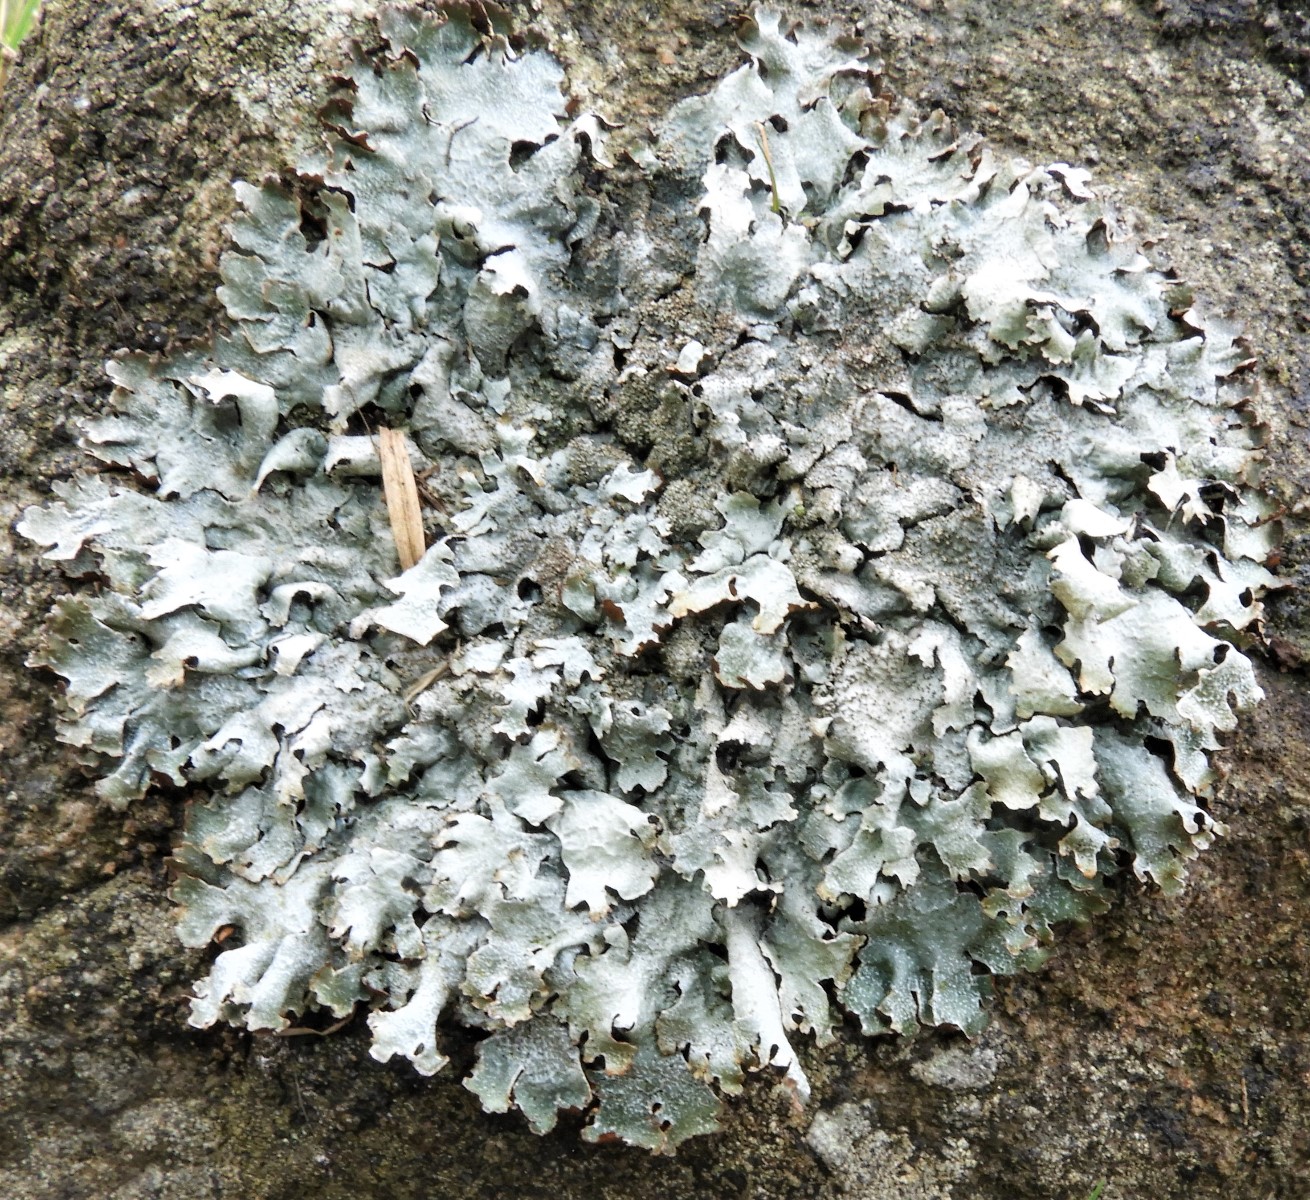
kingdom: Fungi
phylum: Ascomycota
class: Lecanoromycetes
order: Lecanorales
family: Parmeliaceae
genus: Parmelia
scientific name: Parmelia saxatilis
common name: farve-skållav
